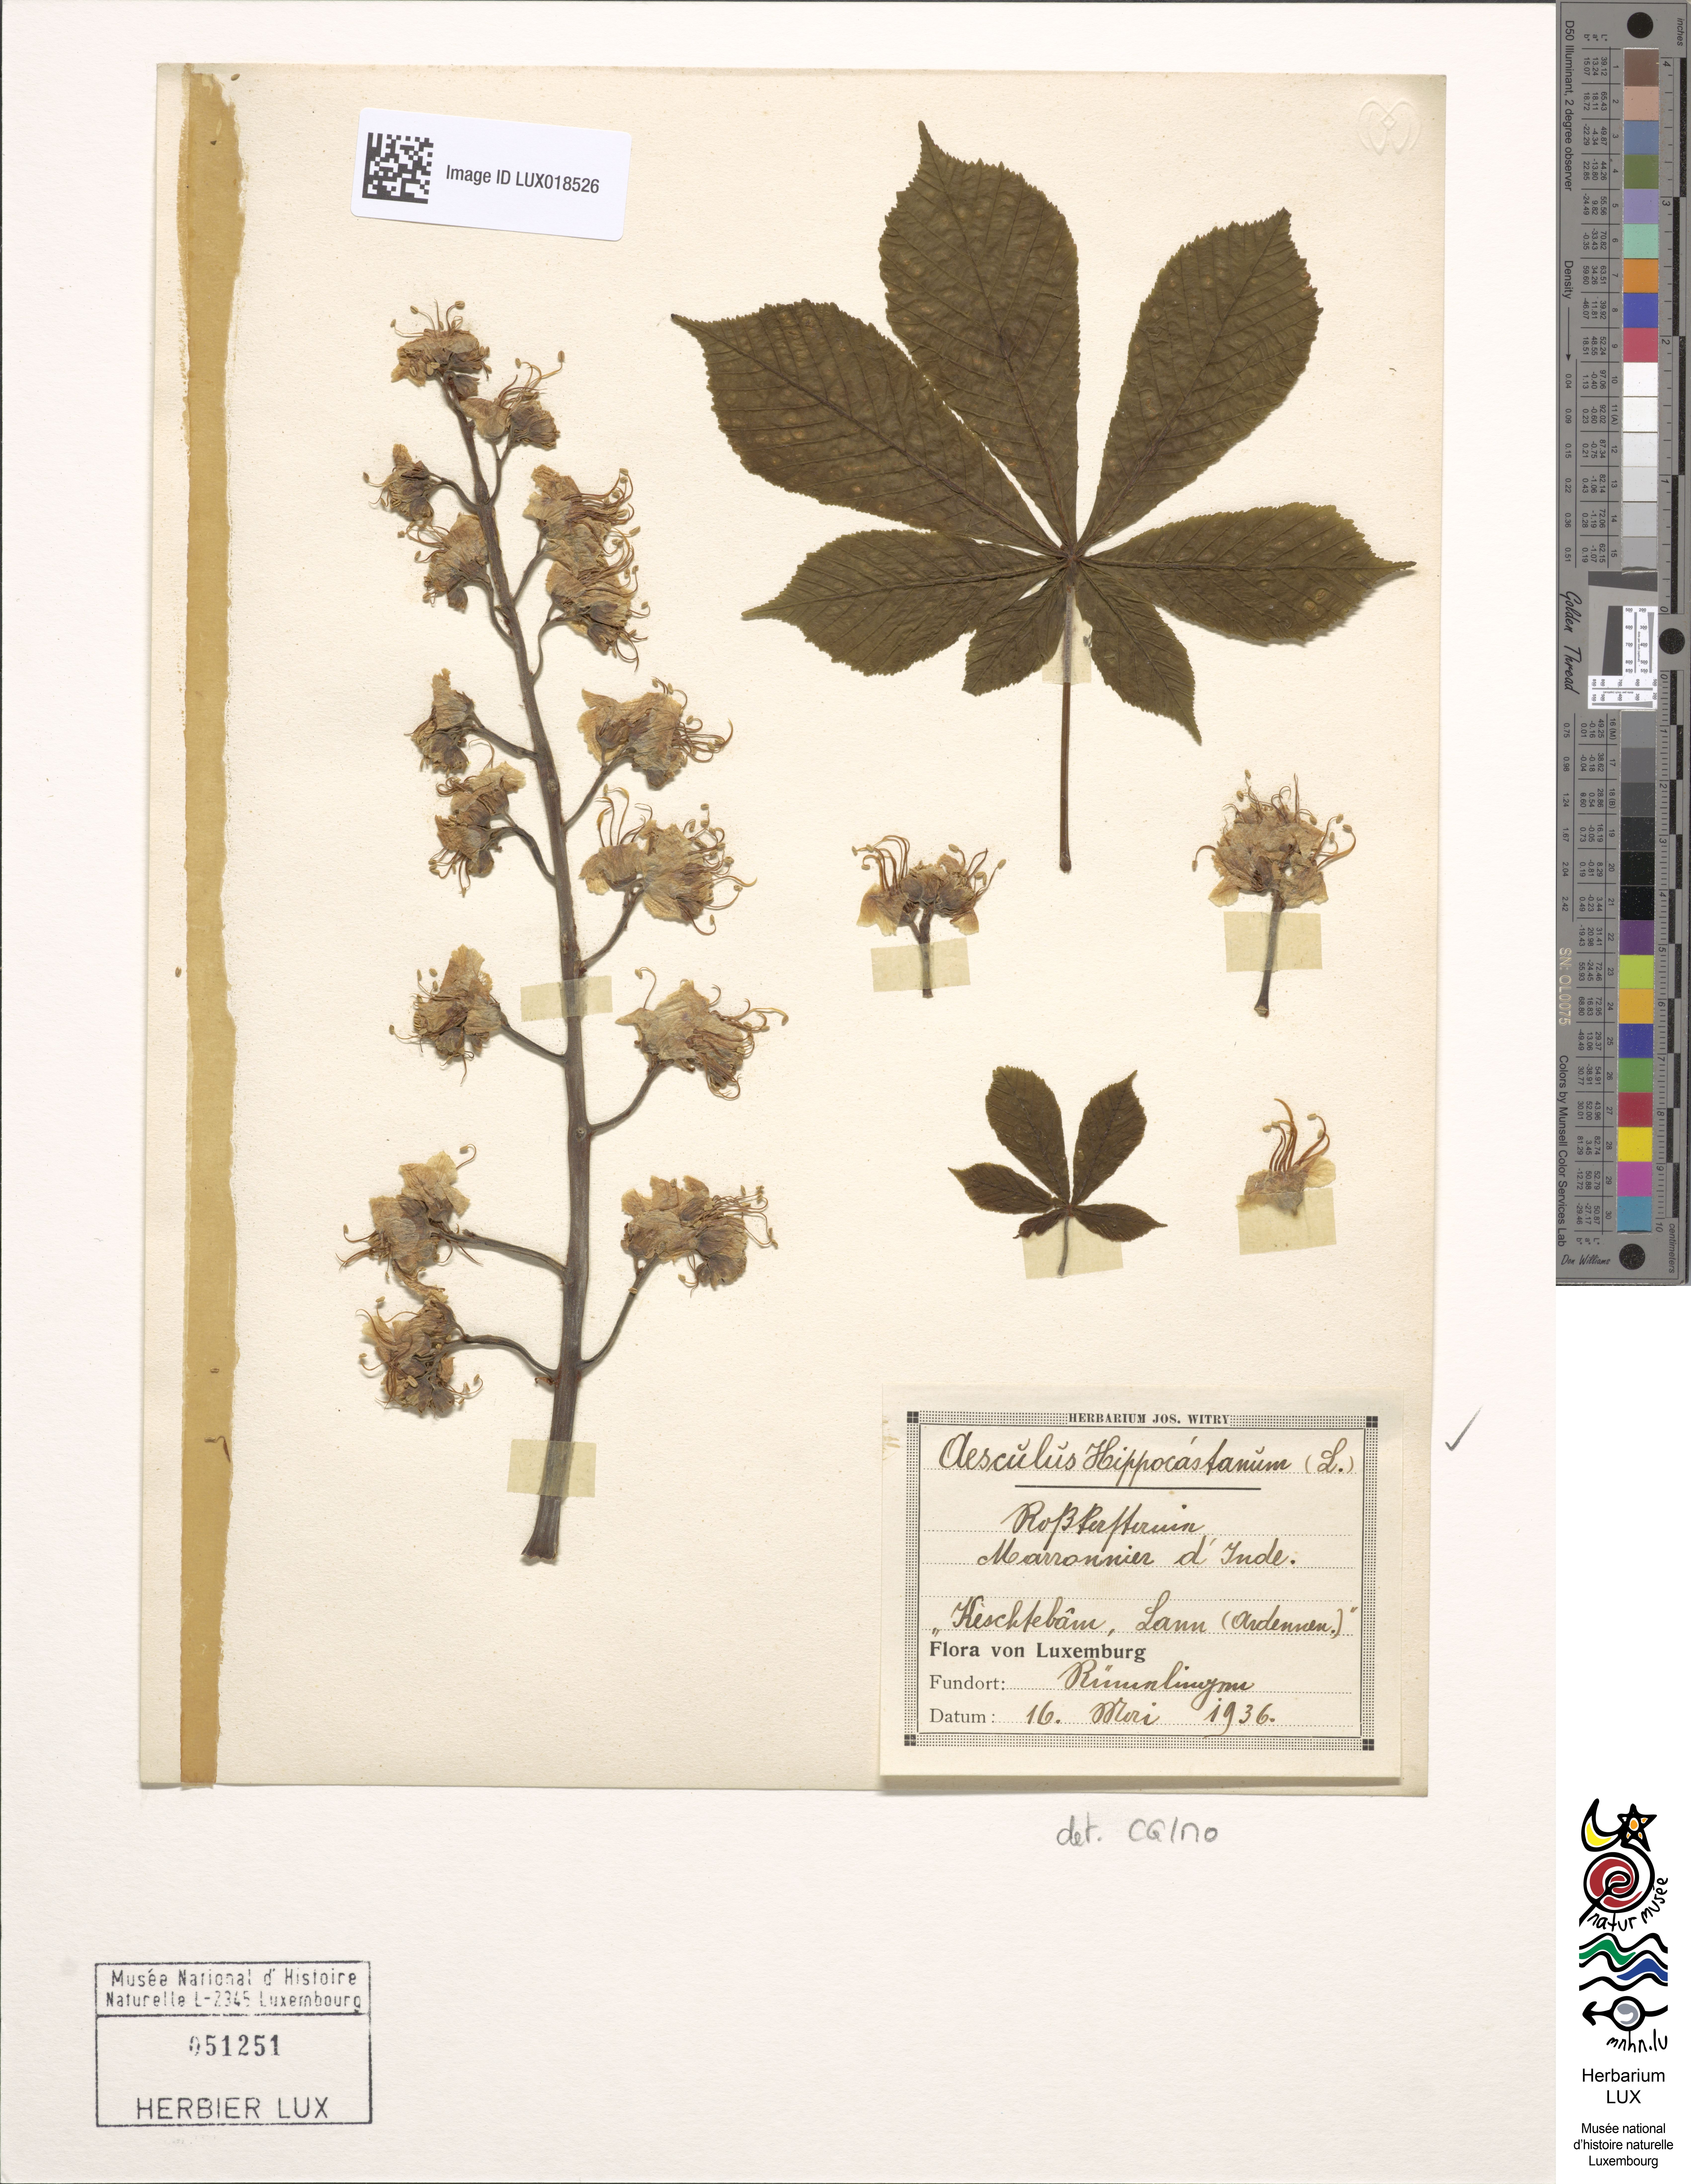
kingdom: Plantae
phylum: Tracheophyta
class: Magnoliopsida
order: Sapindales
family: Sapindaceae
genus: Aesculus
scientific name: Aesculus hippocastanum
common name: Horse-chestnut
